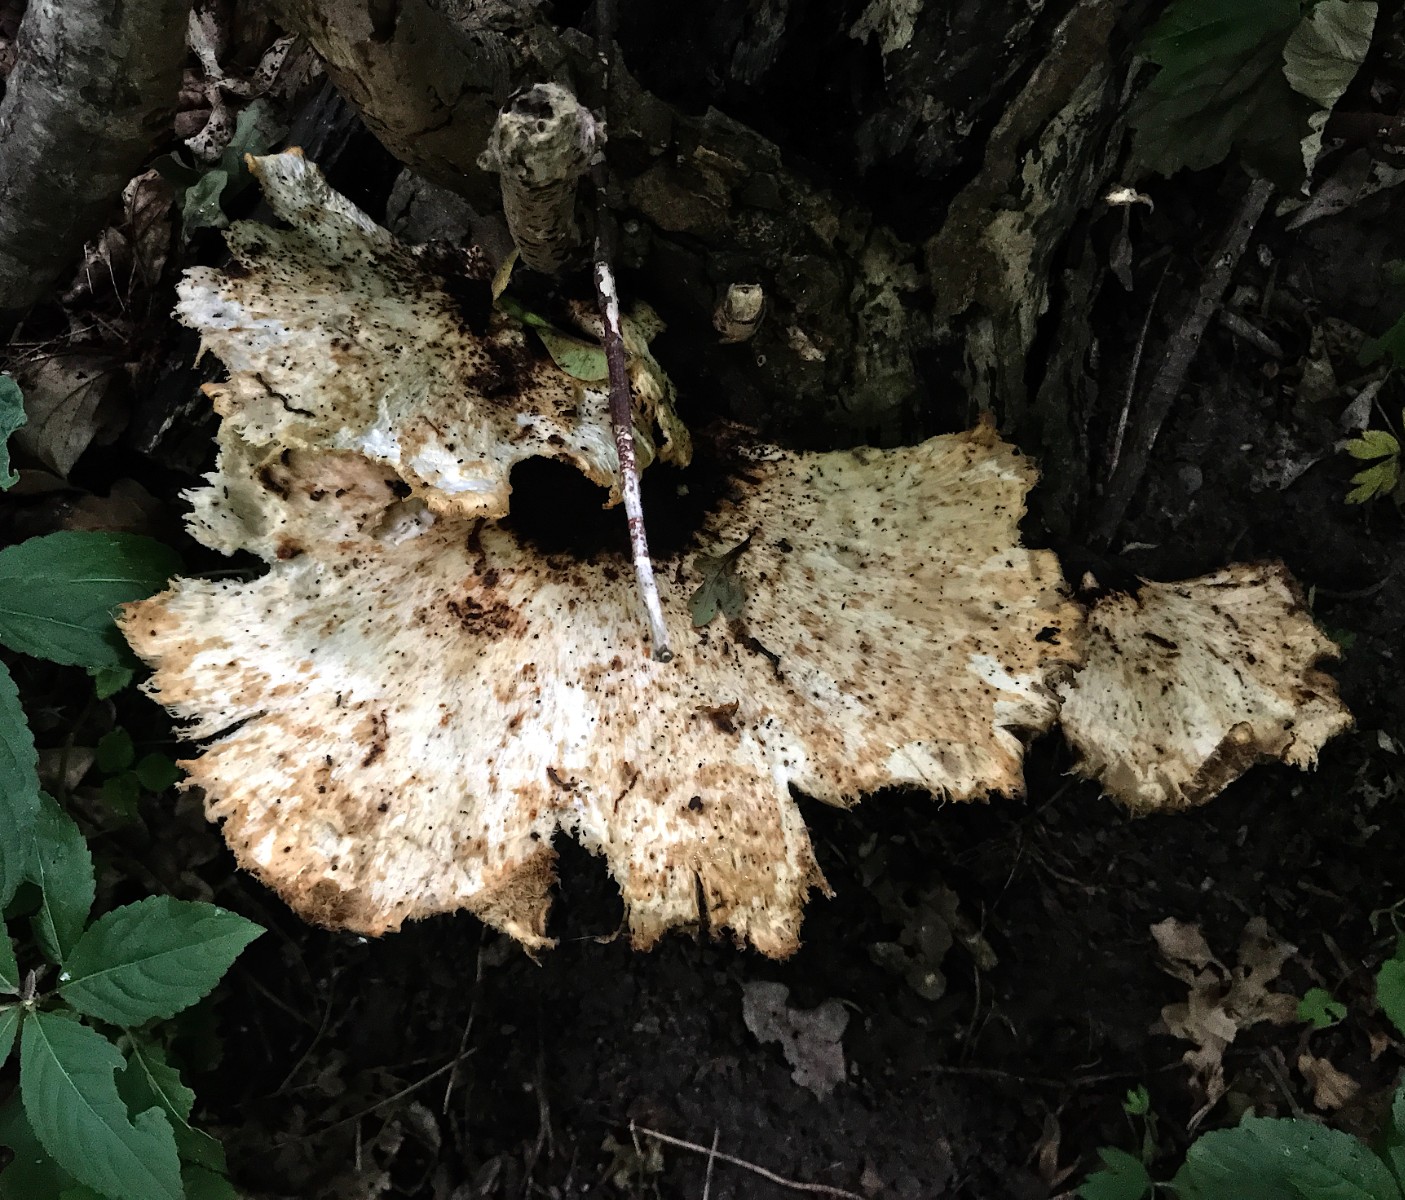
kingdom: Fungi
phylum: Basidiomycota
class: Agaricomycetes
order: Polyporales
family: Polyporaceae
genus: Cerioporus
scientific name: Cerioporus squamosus
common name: skællet stilkporesvamp
